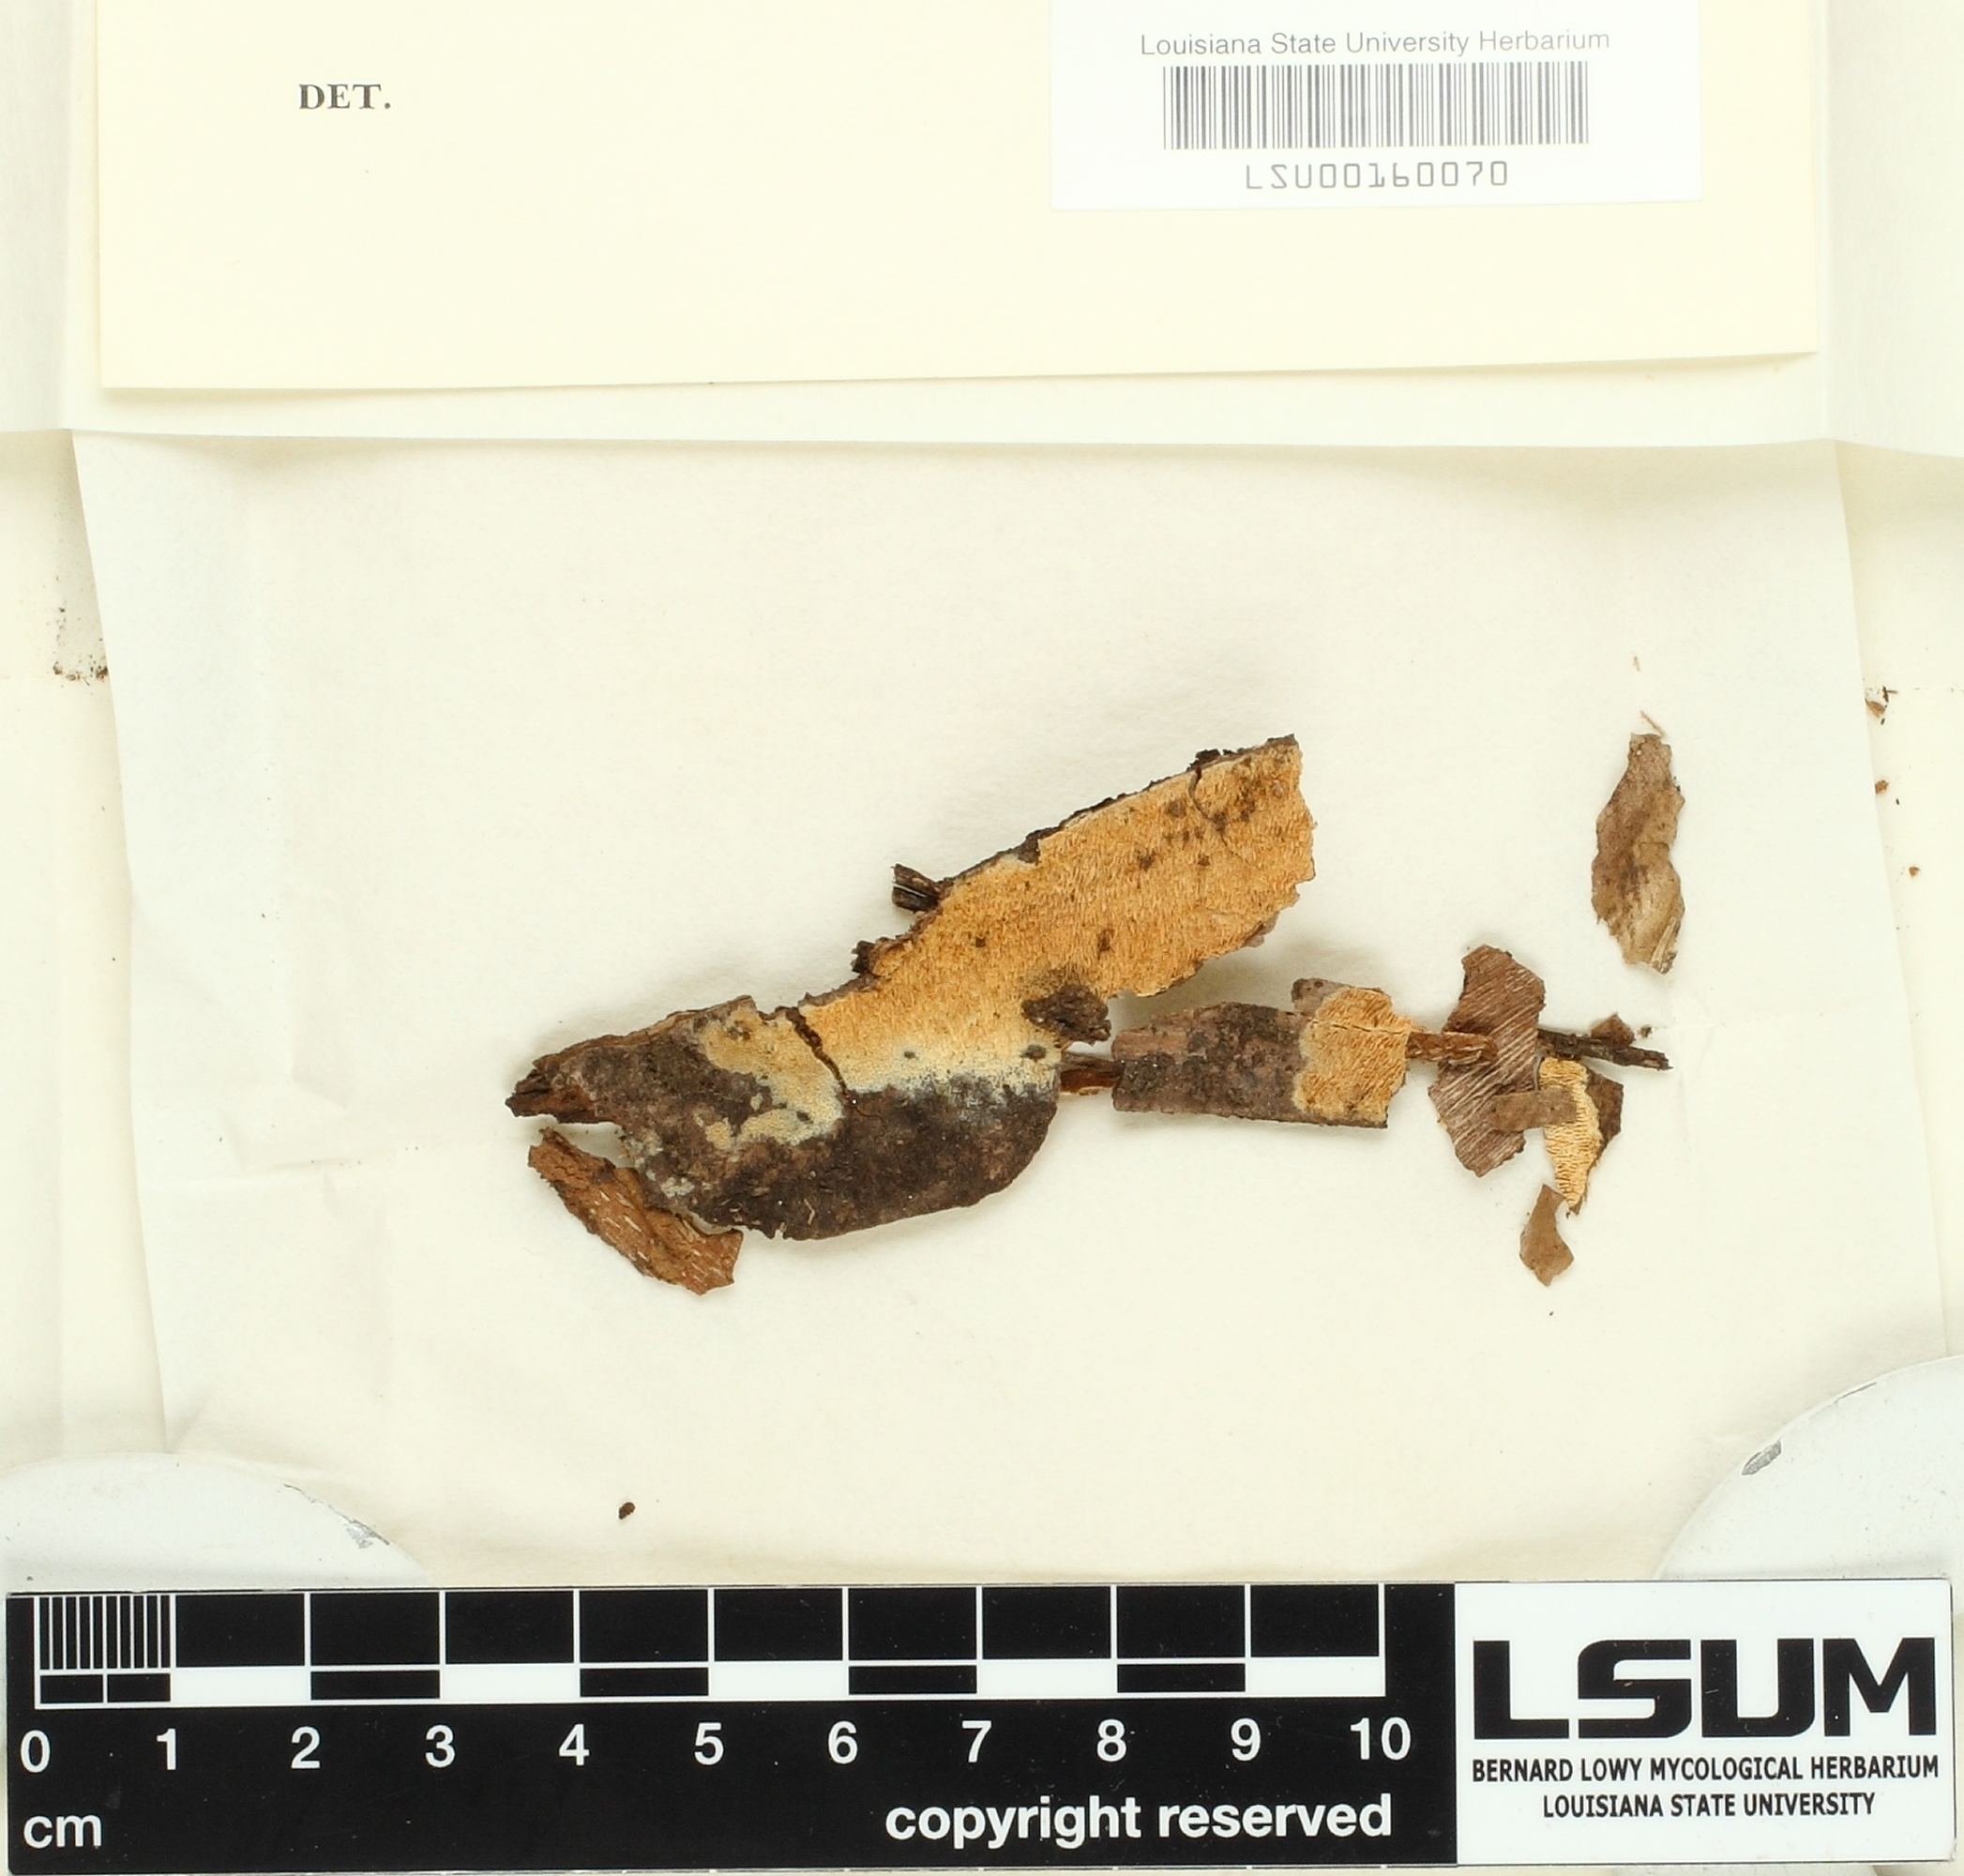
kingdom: Fungi
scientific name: Fungi
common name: Fungi
